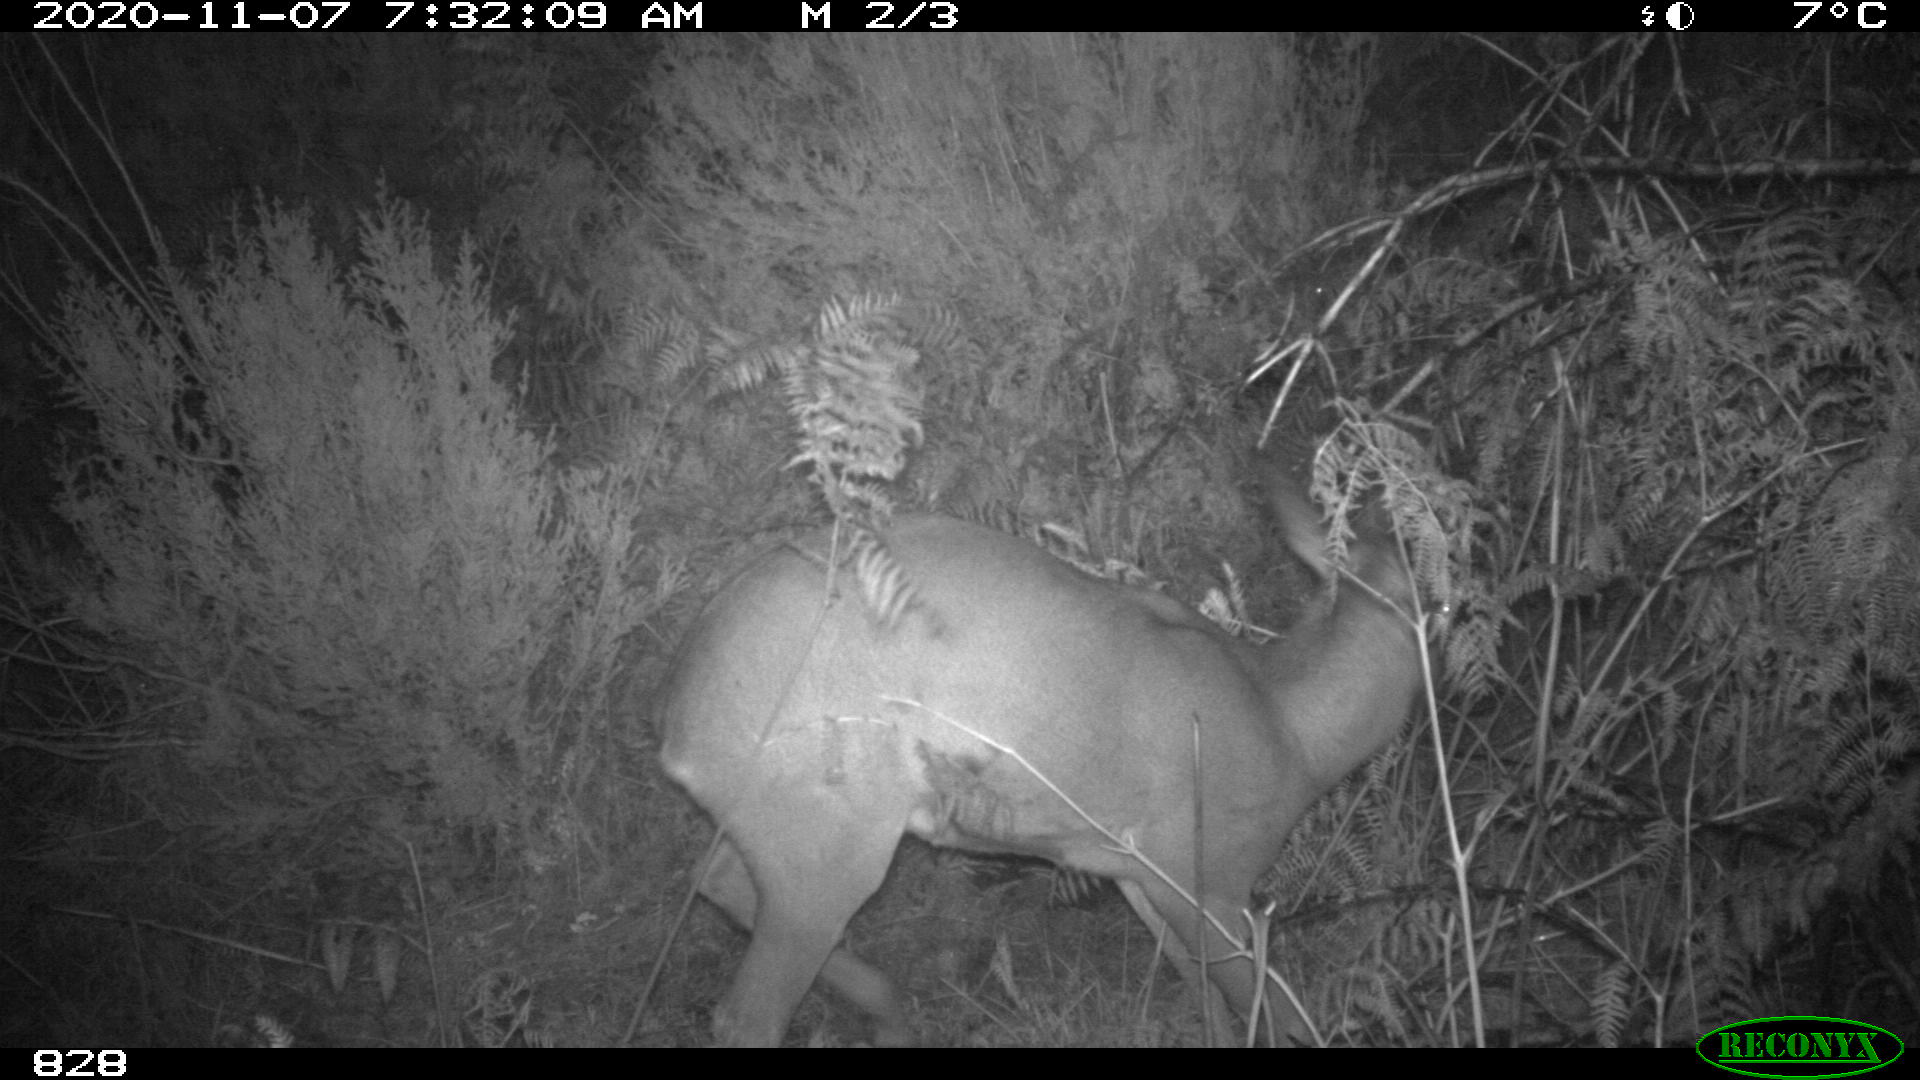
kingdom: Animalia
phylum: Chordata
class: Mammalia
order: Artiodactyla
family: Cervidae
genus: Capreolus
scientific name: Capreolus capreolus
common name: Western roe deer
